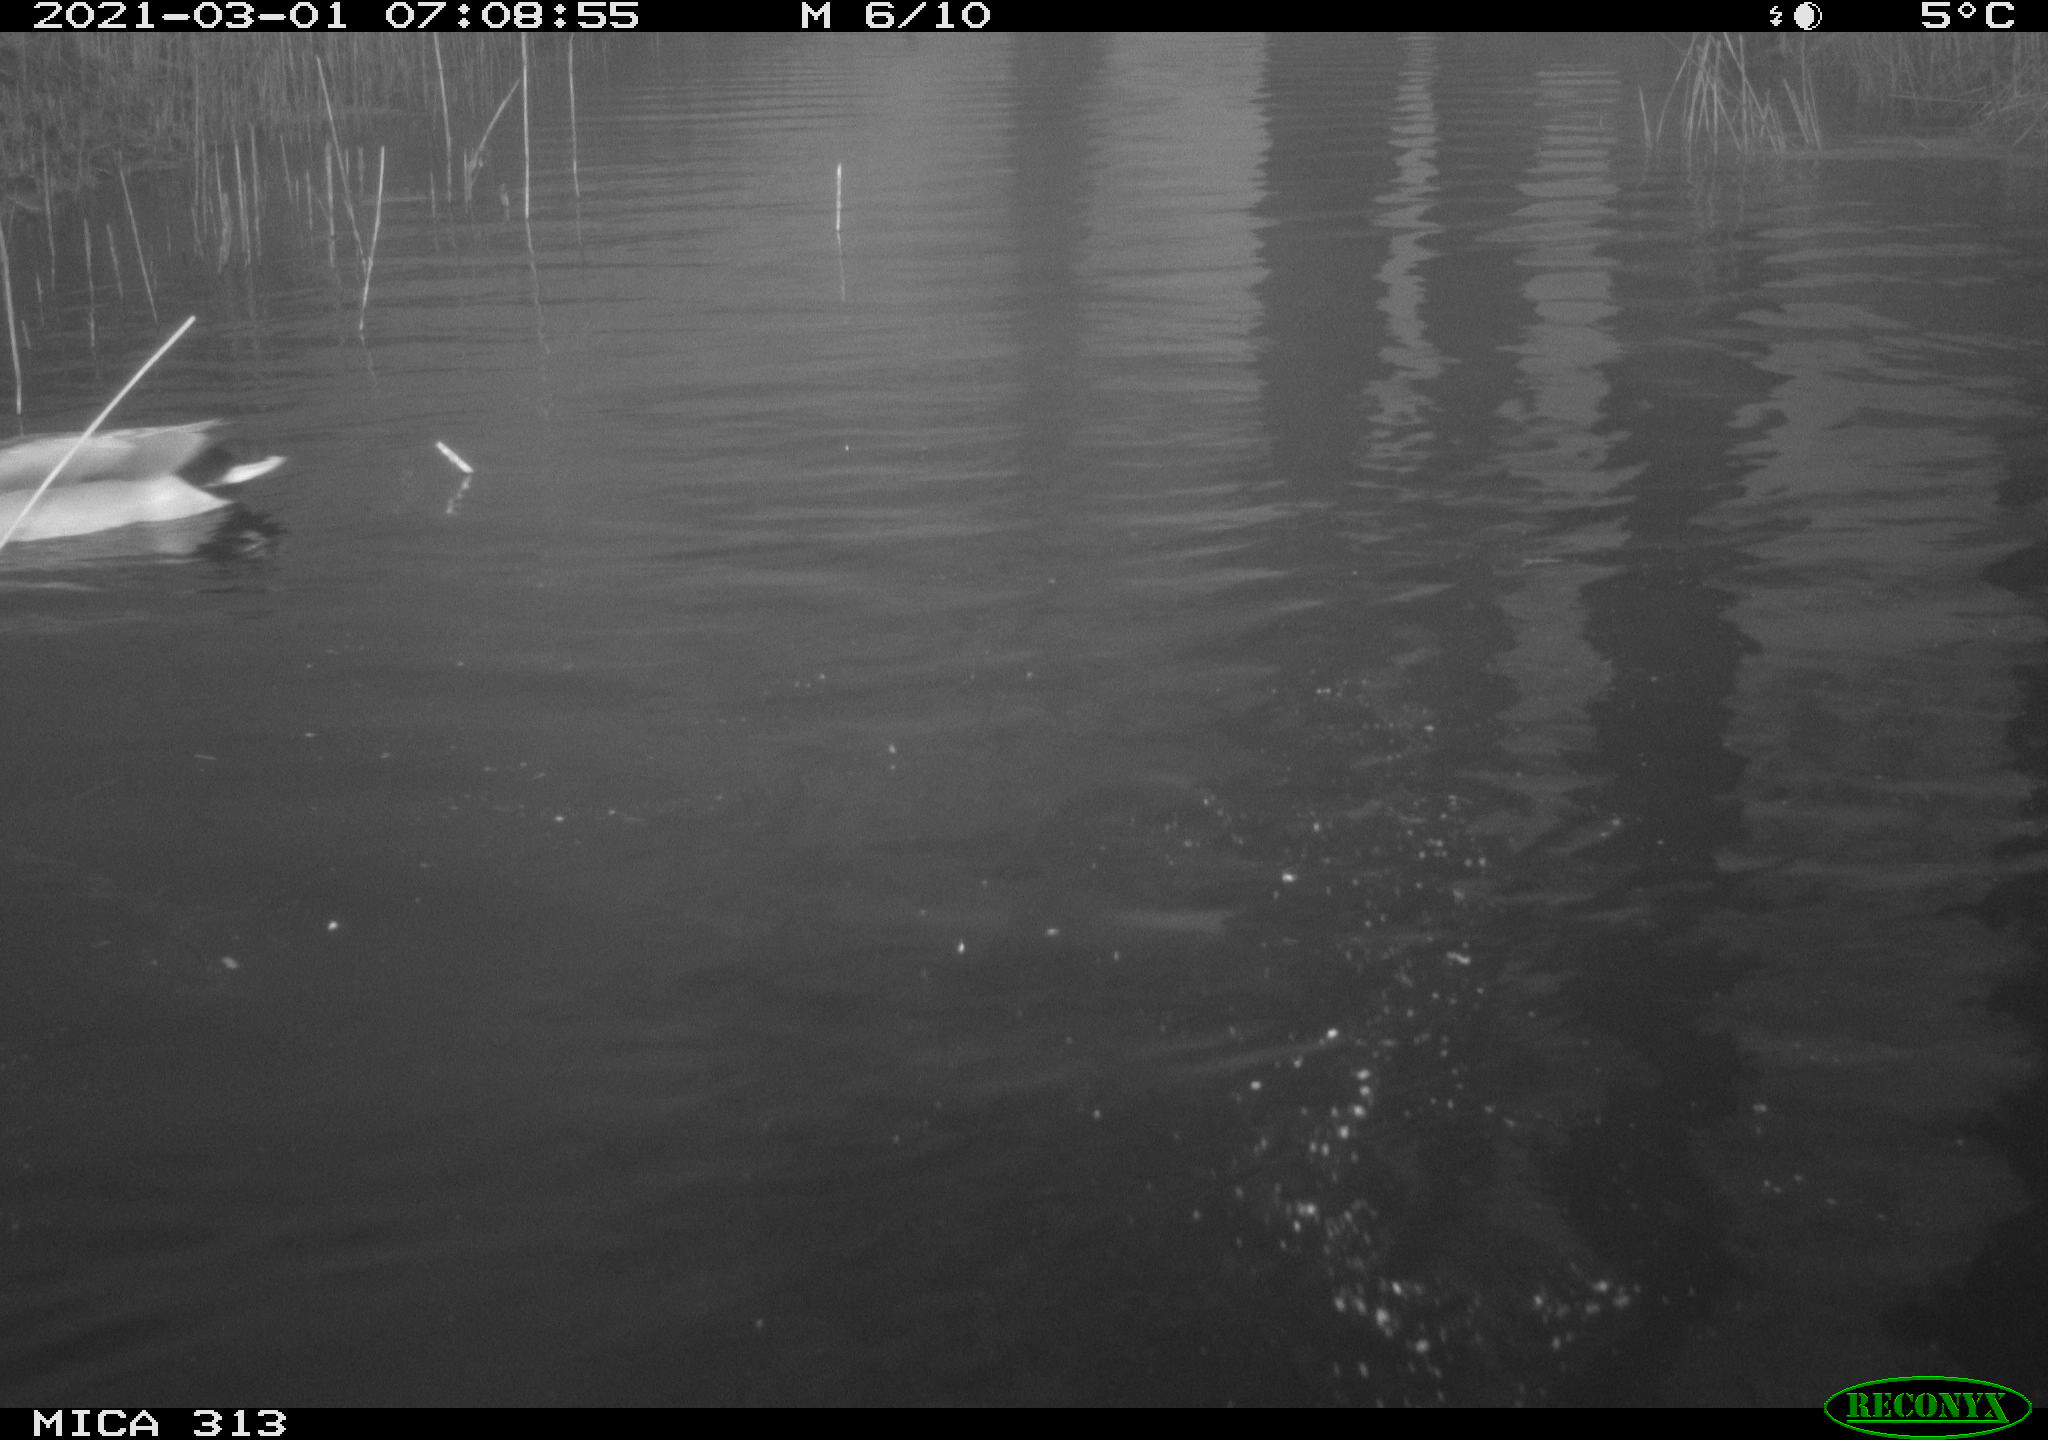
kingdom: Animalia
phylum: Chordata
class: Aves
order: Anseriformes
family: Anatidae
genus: Anas
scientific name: Anas
